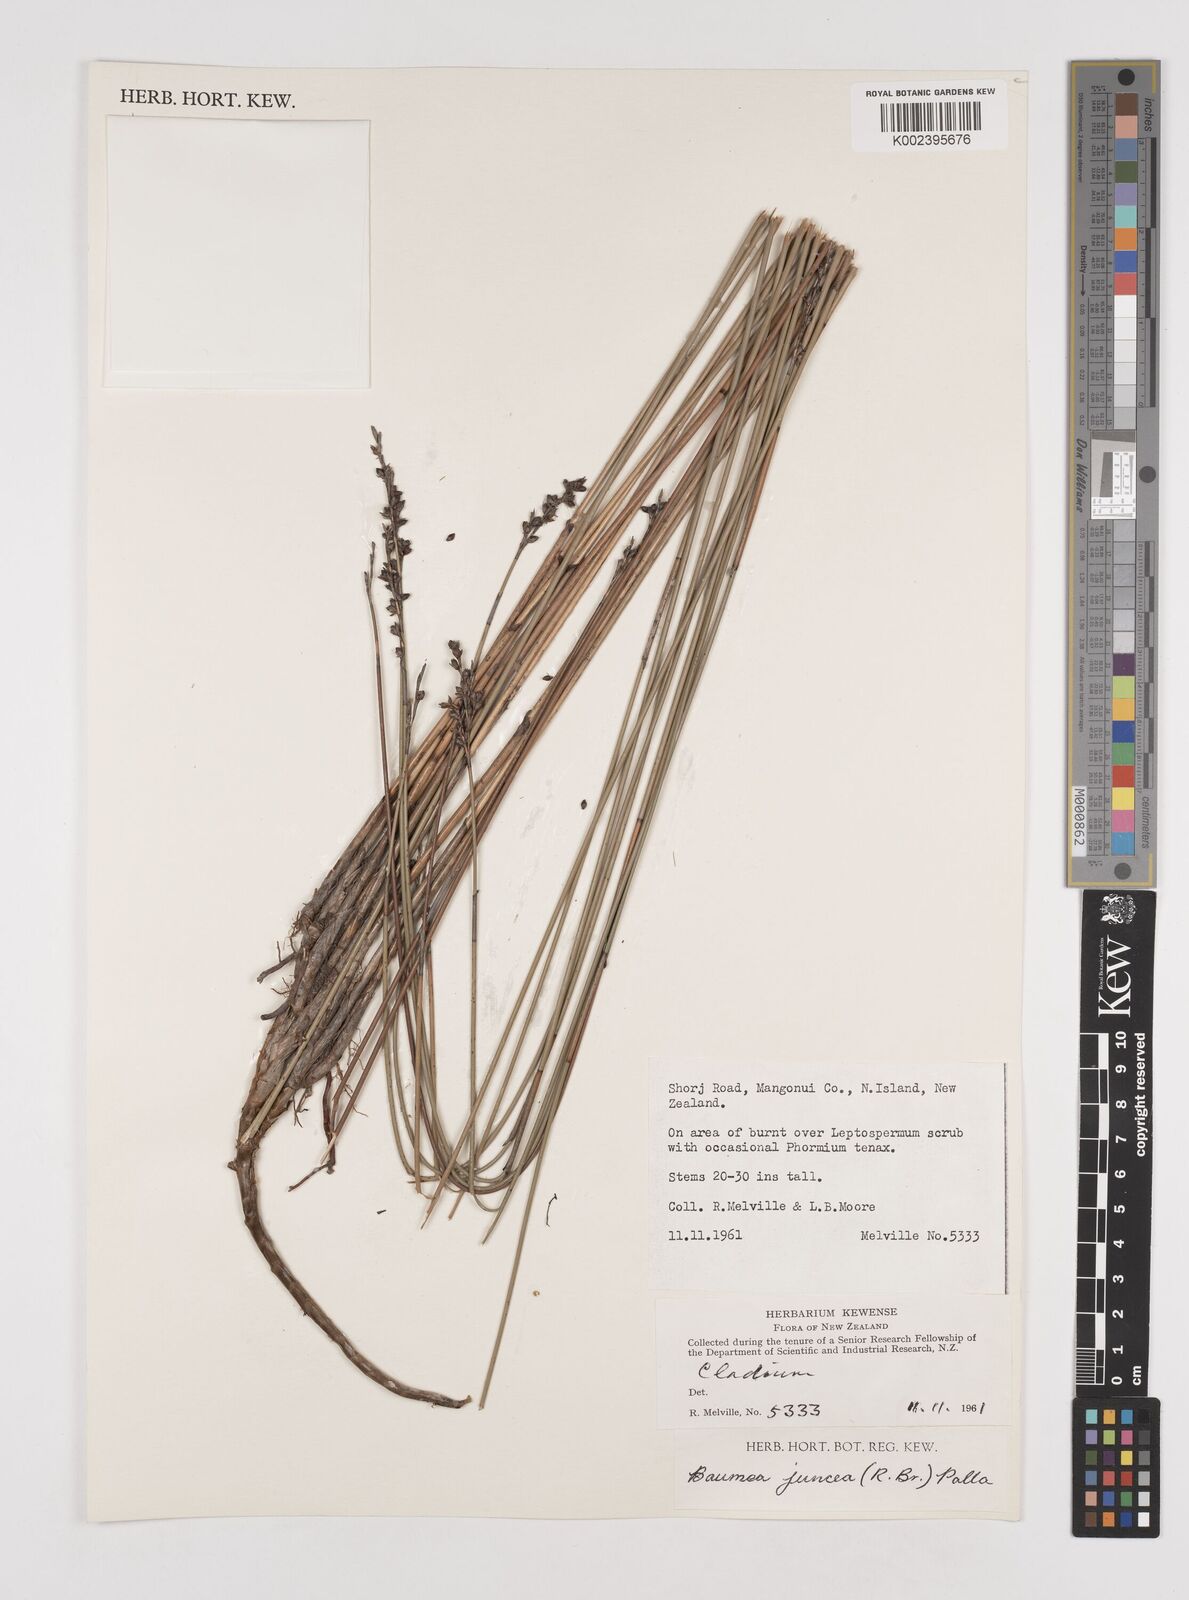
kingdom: Plantae
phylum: Tracheophyta
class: Liliopsida
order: Poales
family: Cyperaceae
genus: Machaerina
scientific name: Machaerina juncea
